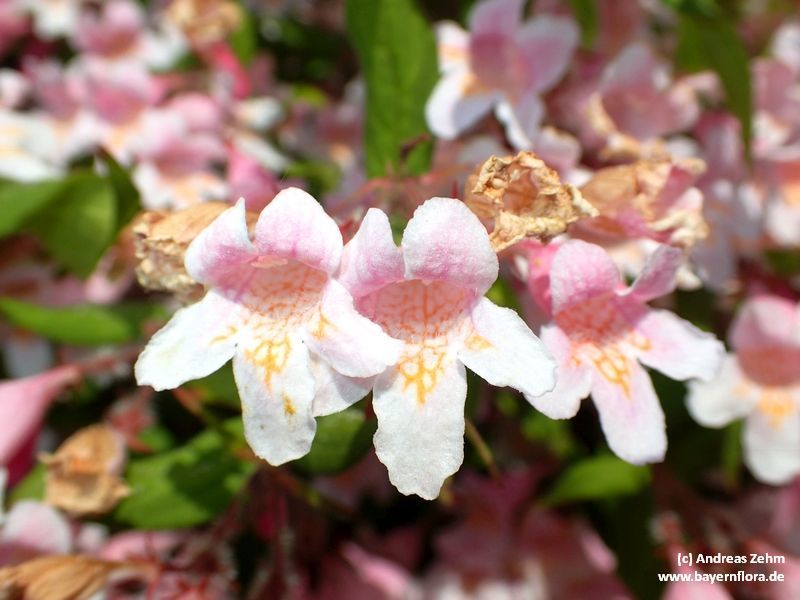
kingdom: Plantae
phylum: Tracheophyta
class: Magnoliopsida
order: Dipsacales
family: Caprifoliaceae
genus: Kolkwitzia
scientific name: Kolkwitzia amabilis
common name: Beautybush
